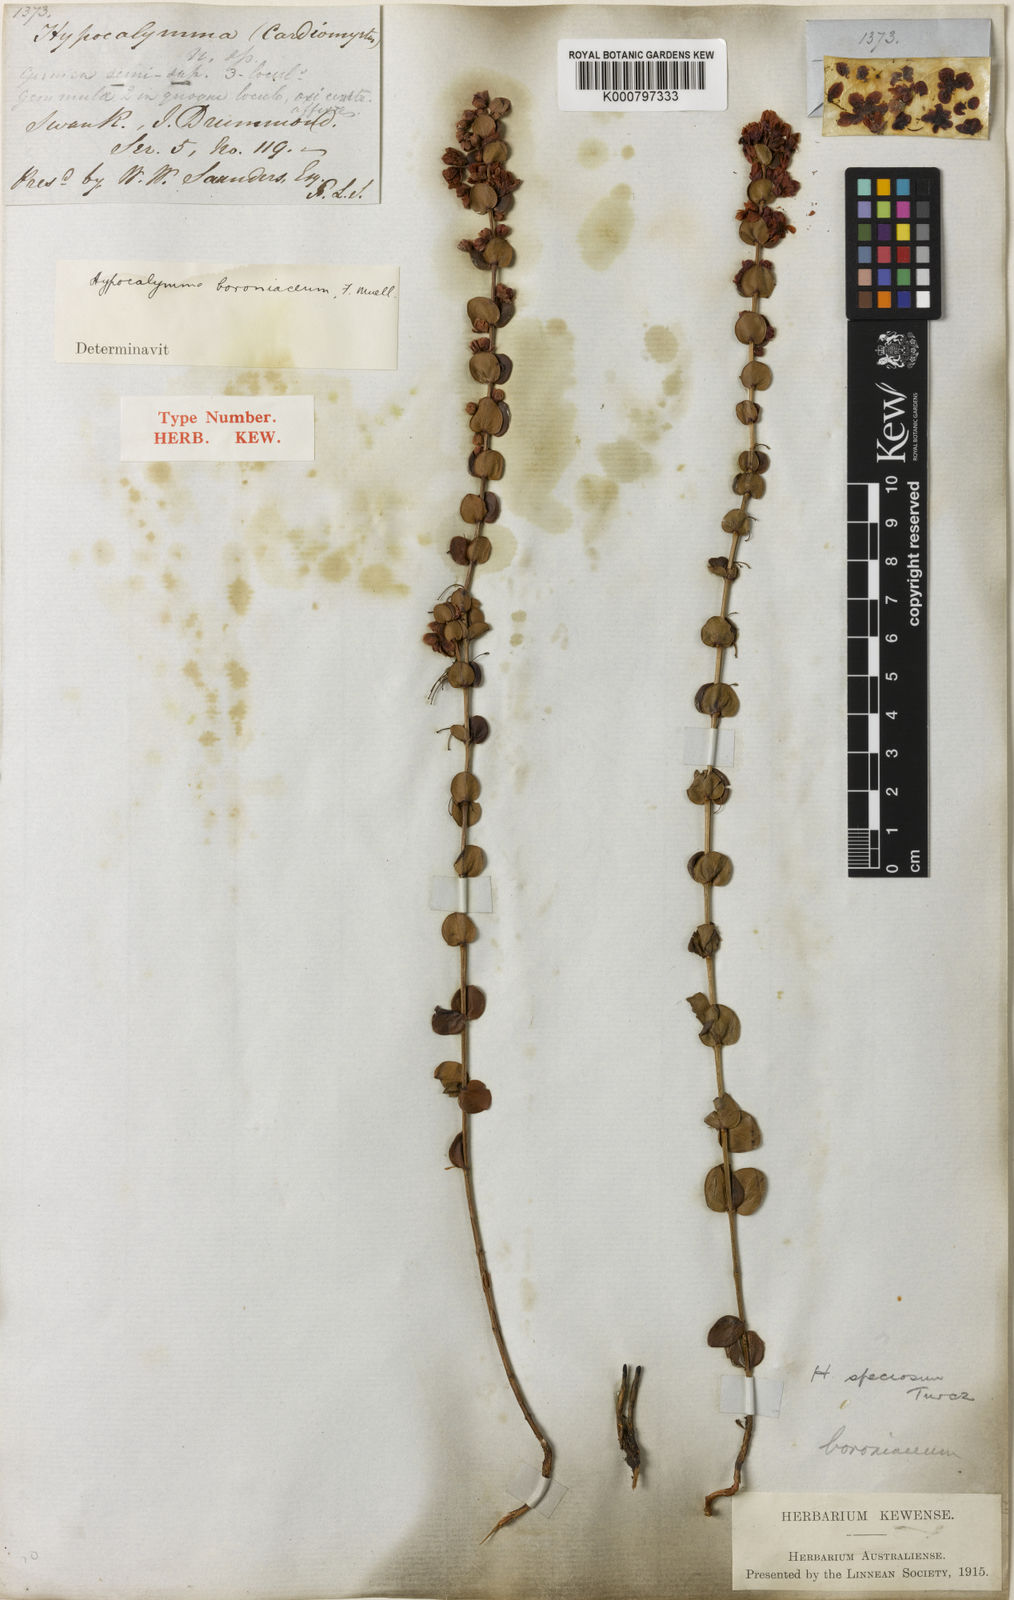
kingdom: Plantae
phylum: Tracheophyta
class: Magnoliopsida
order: Myrtales
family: Myrtaceae
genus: Hypocalymma
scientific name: Hypocalymma speciosum
